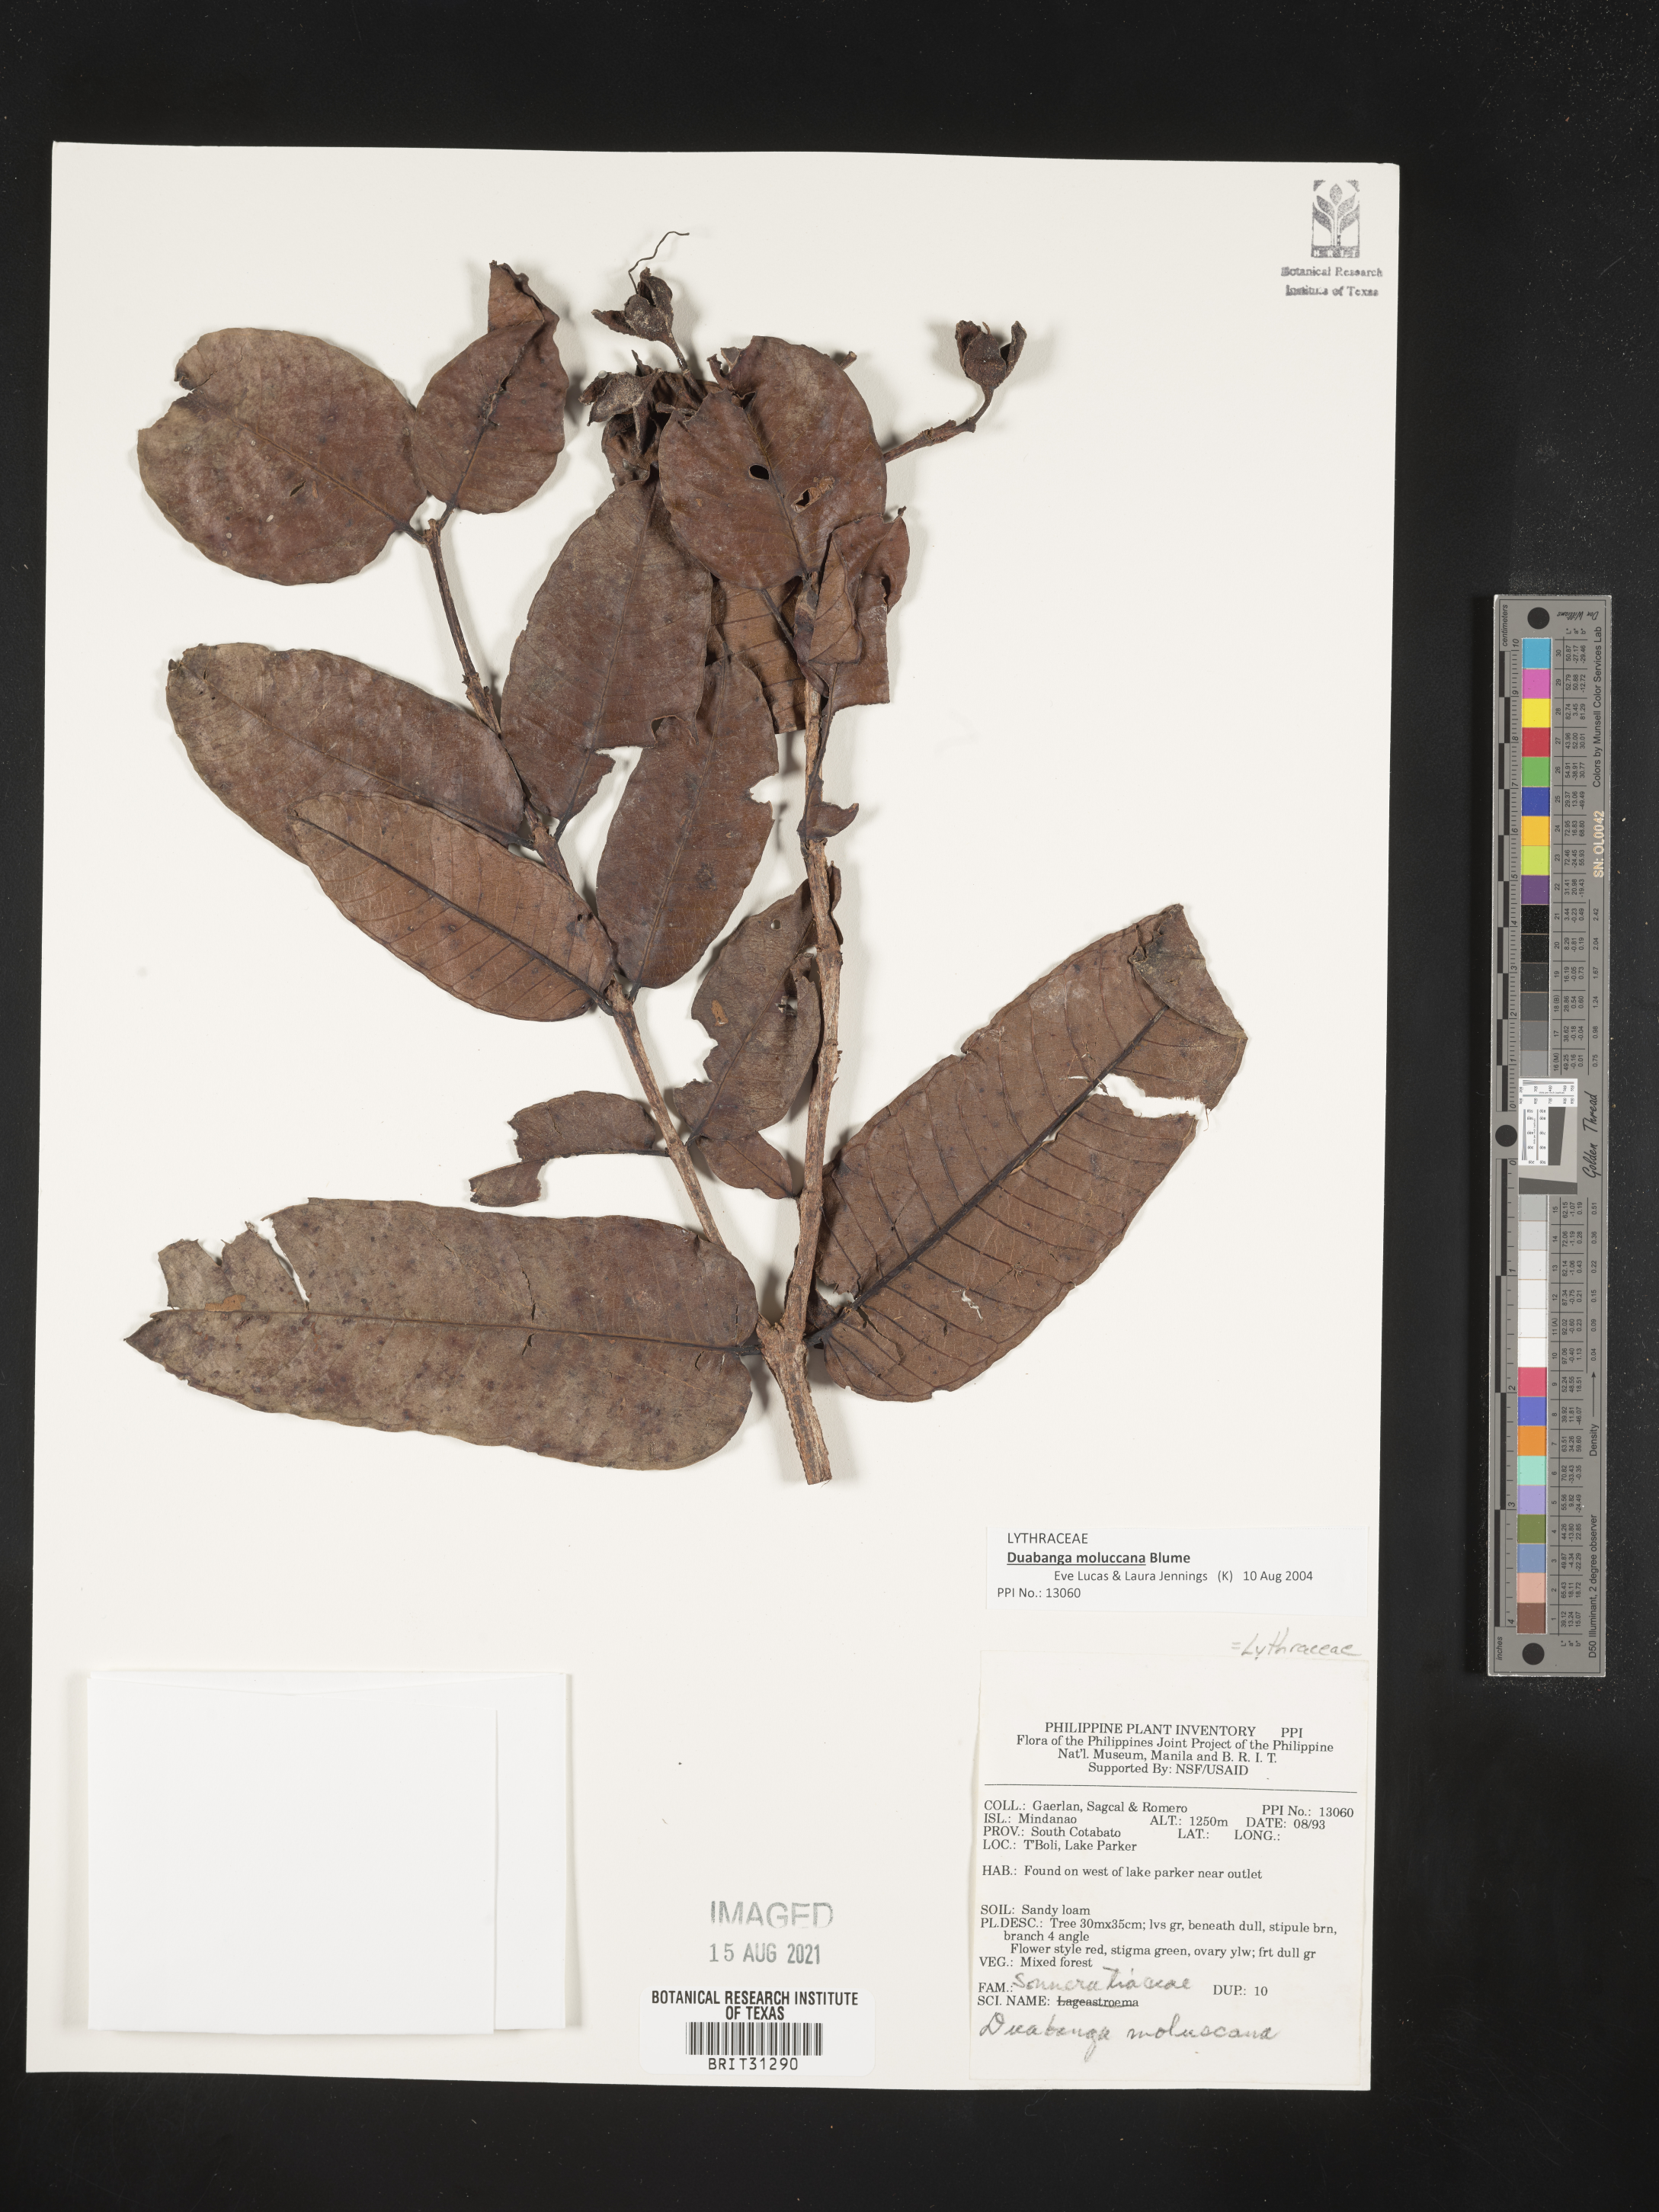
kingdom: Plantae
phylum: Tracheophyta
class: Magnoliopsida
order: Myrtales
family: Lythraceae
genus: Duabanga
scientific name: Duabanga moluccana
